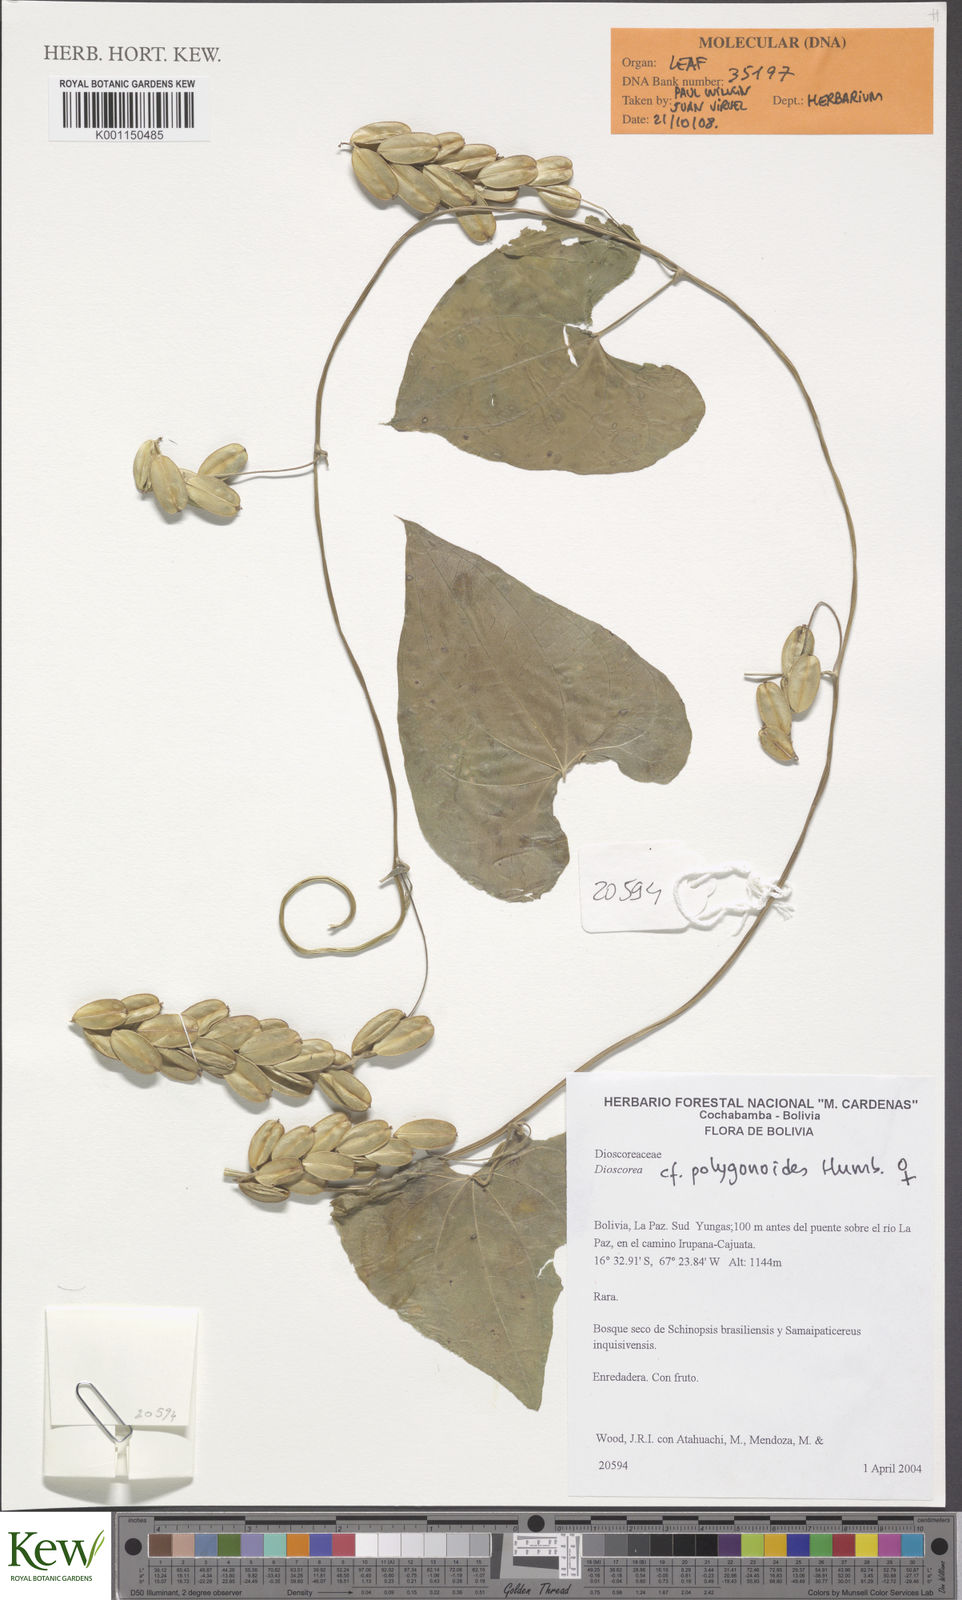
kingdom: Plantae
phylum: Tracheophyta
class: Liliopsida
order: Dioscoreales
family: Dioscoreaceae
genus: Dioscorea
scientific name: Dioscorea subhastata
